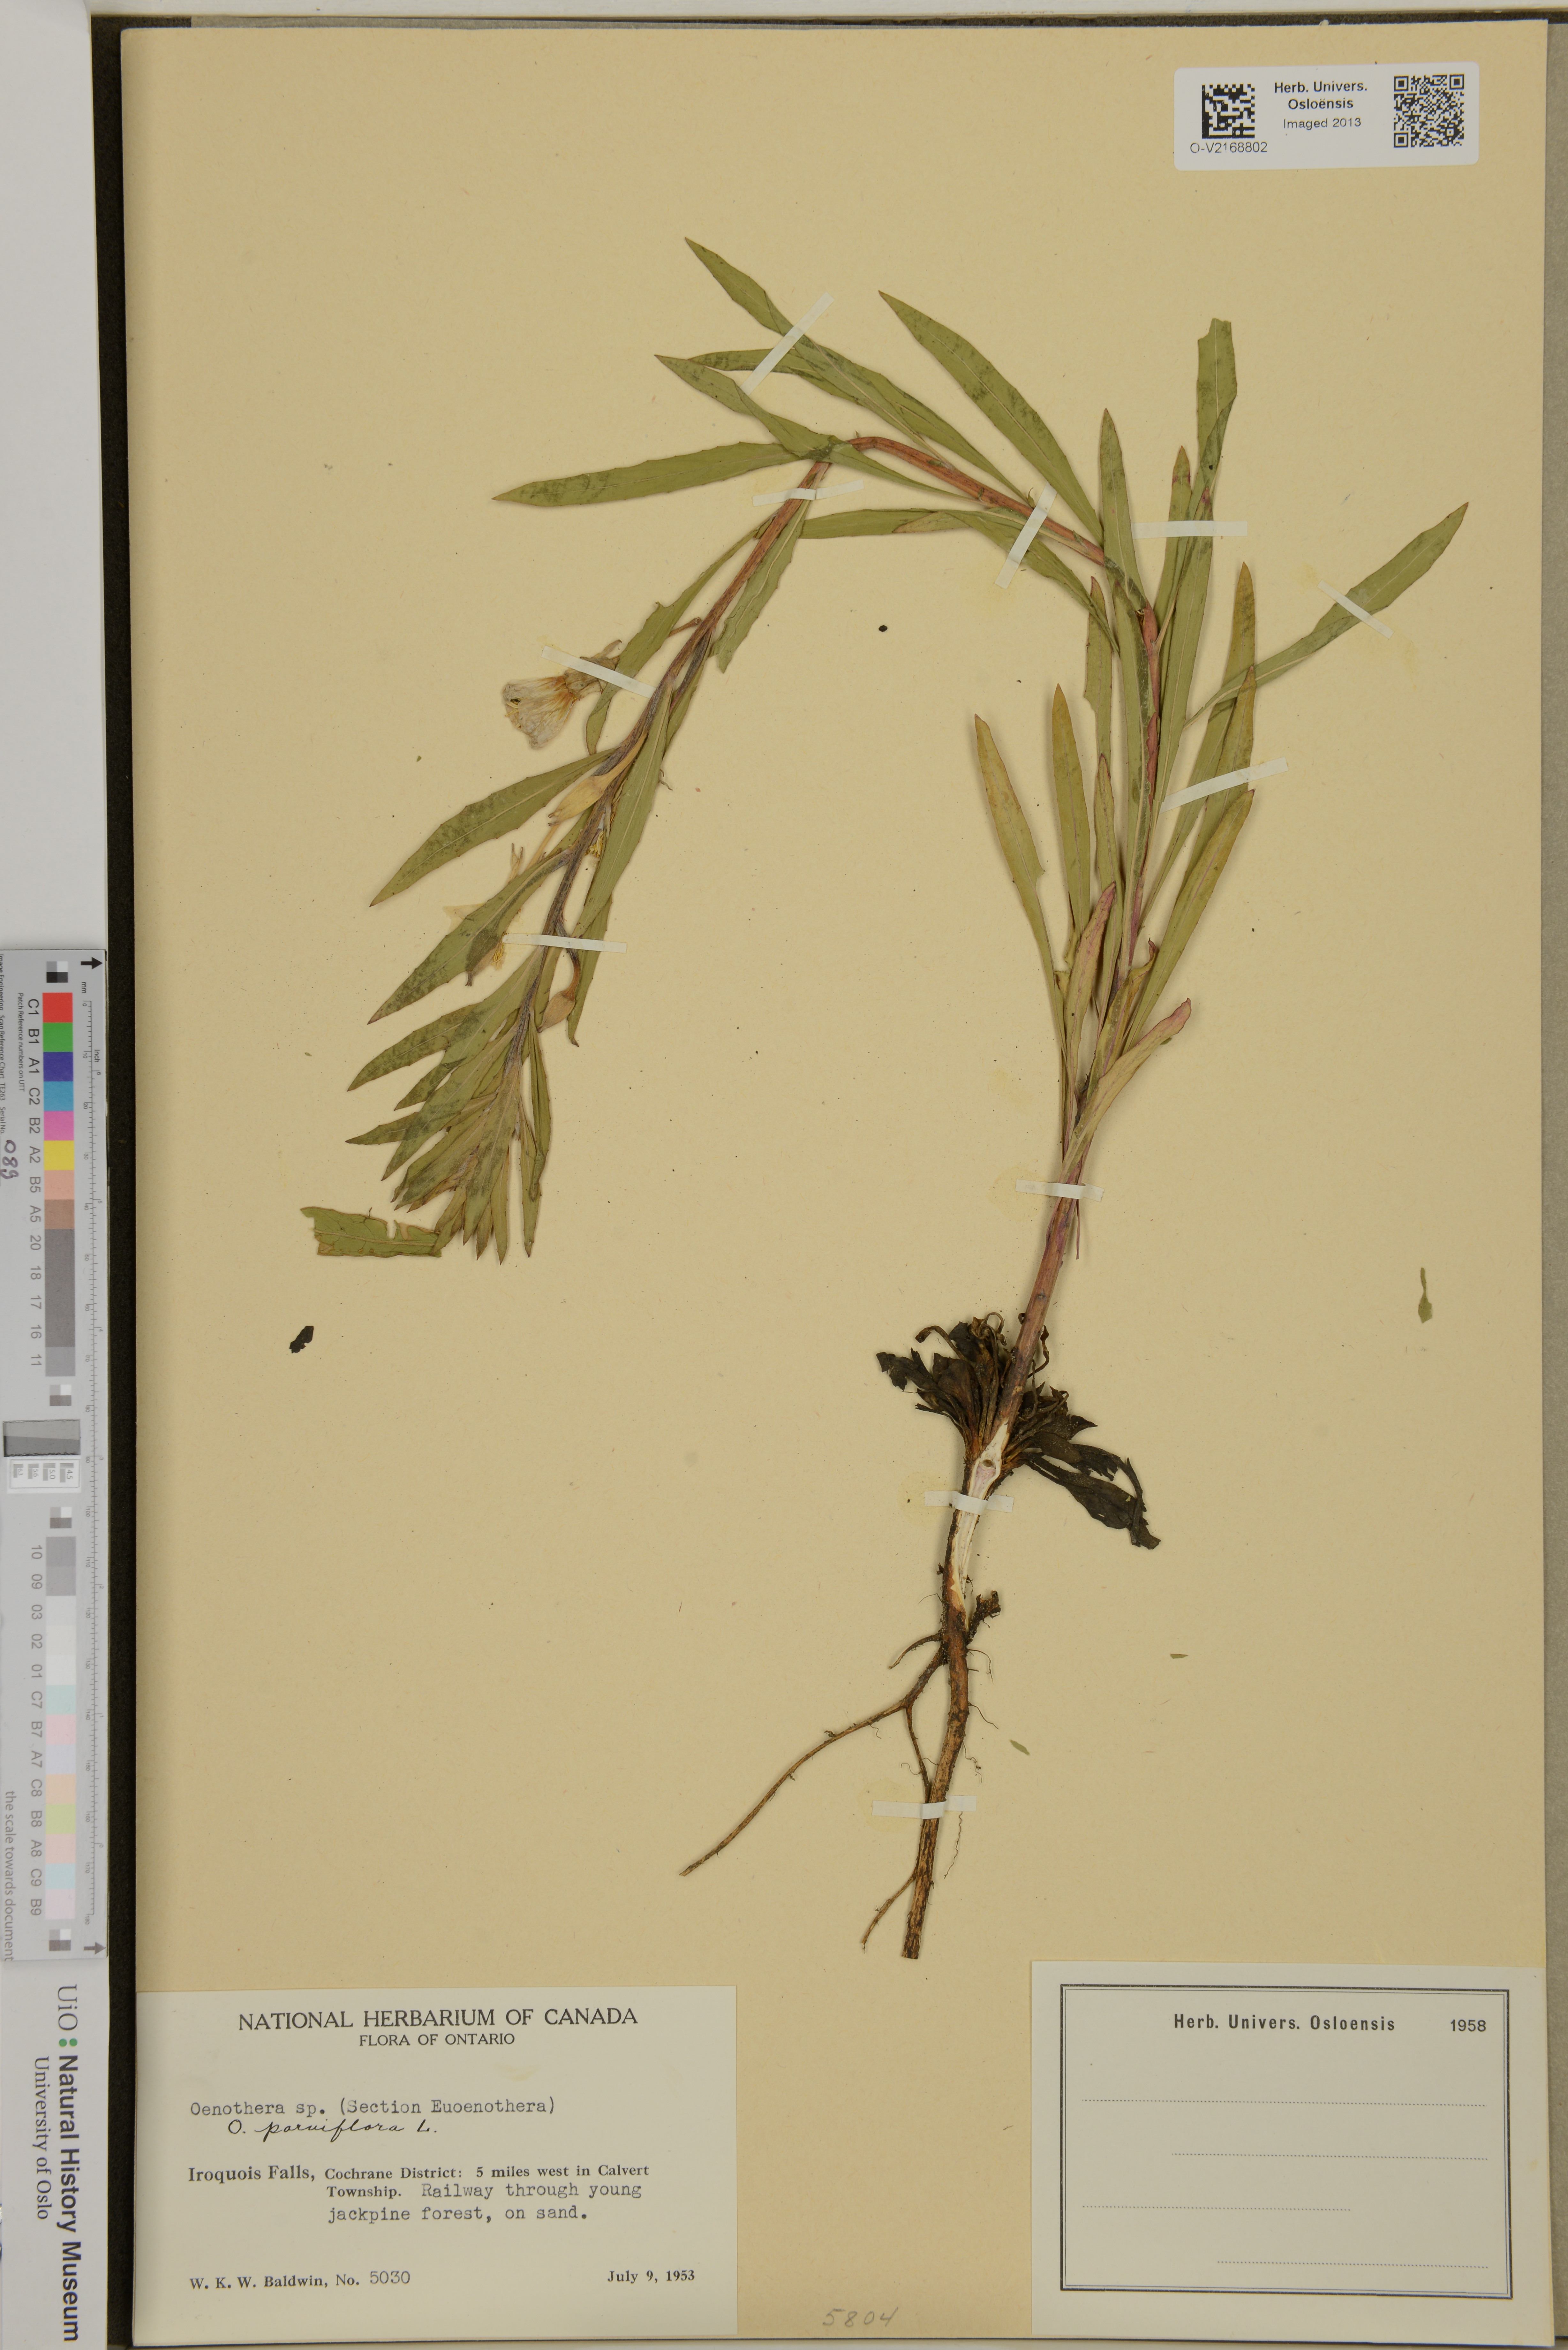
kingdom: Plantae
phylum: Tracheophyta
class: Magnoliopsida
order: Myrtales
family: Onagraceae
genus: Oenothera
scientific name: Oenothera parviflora
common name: Least evening-primrose
